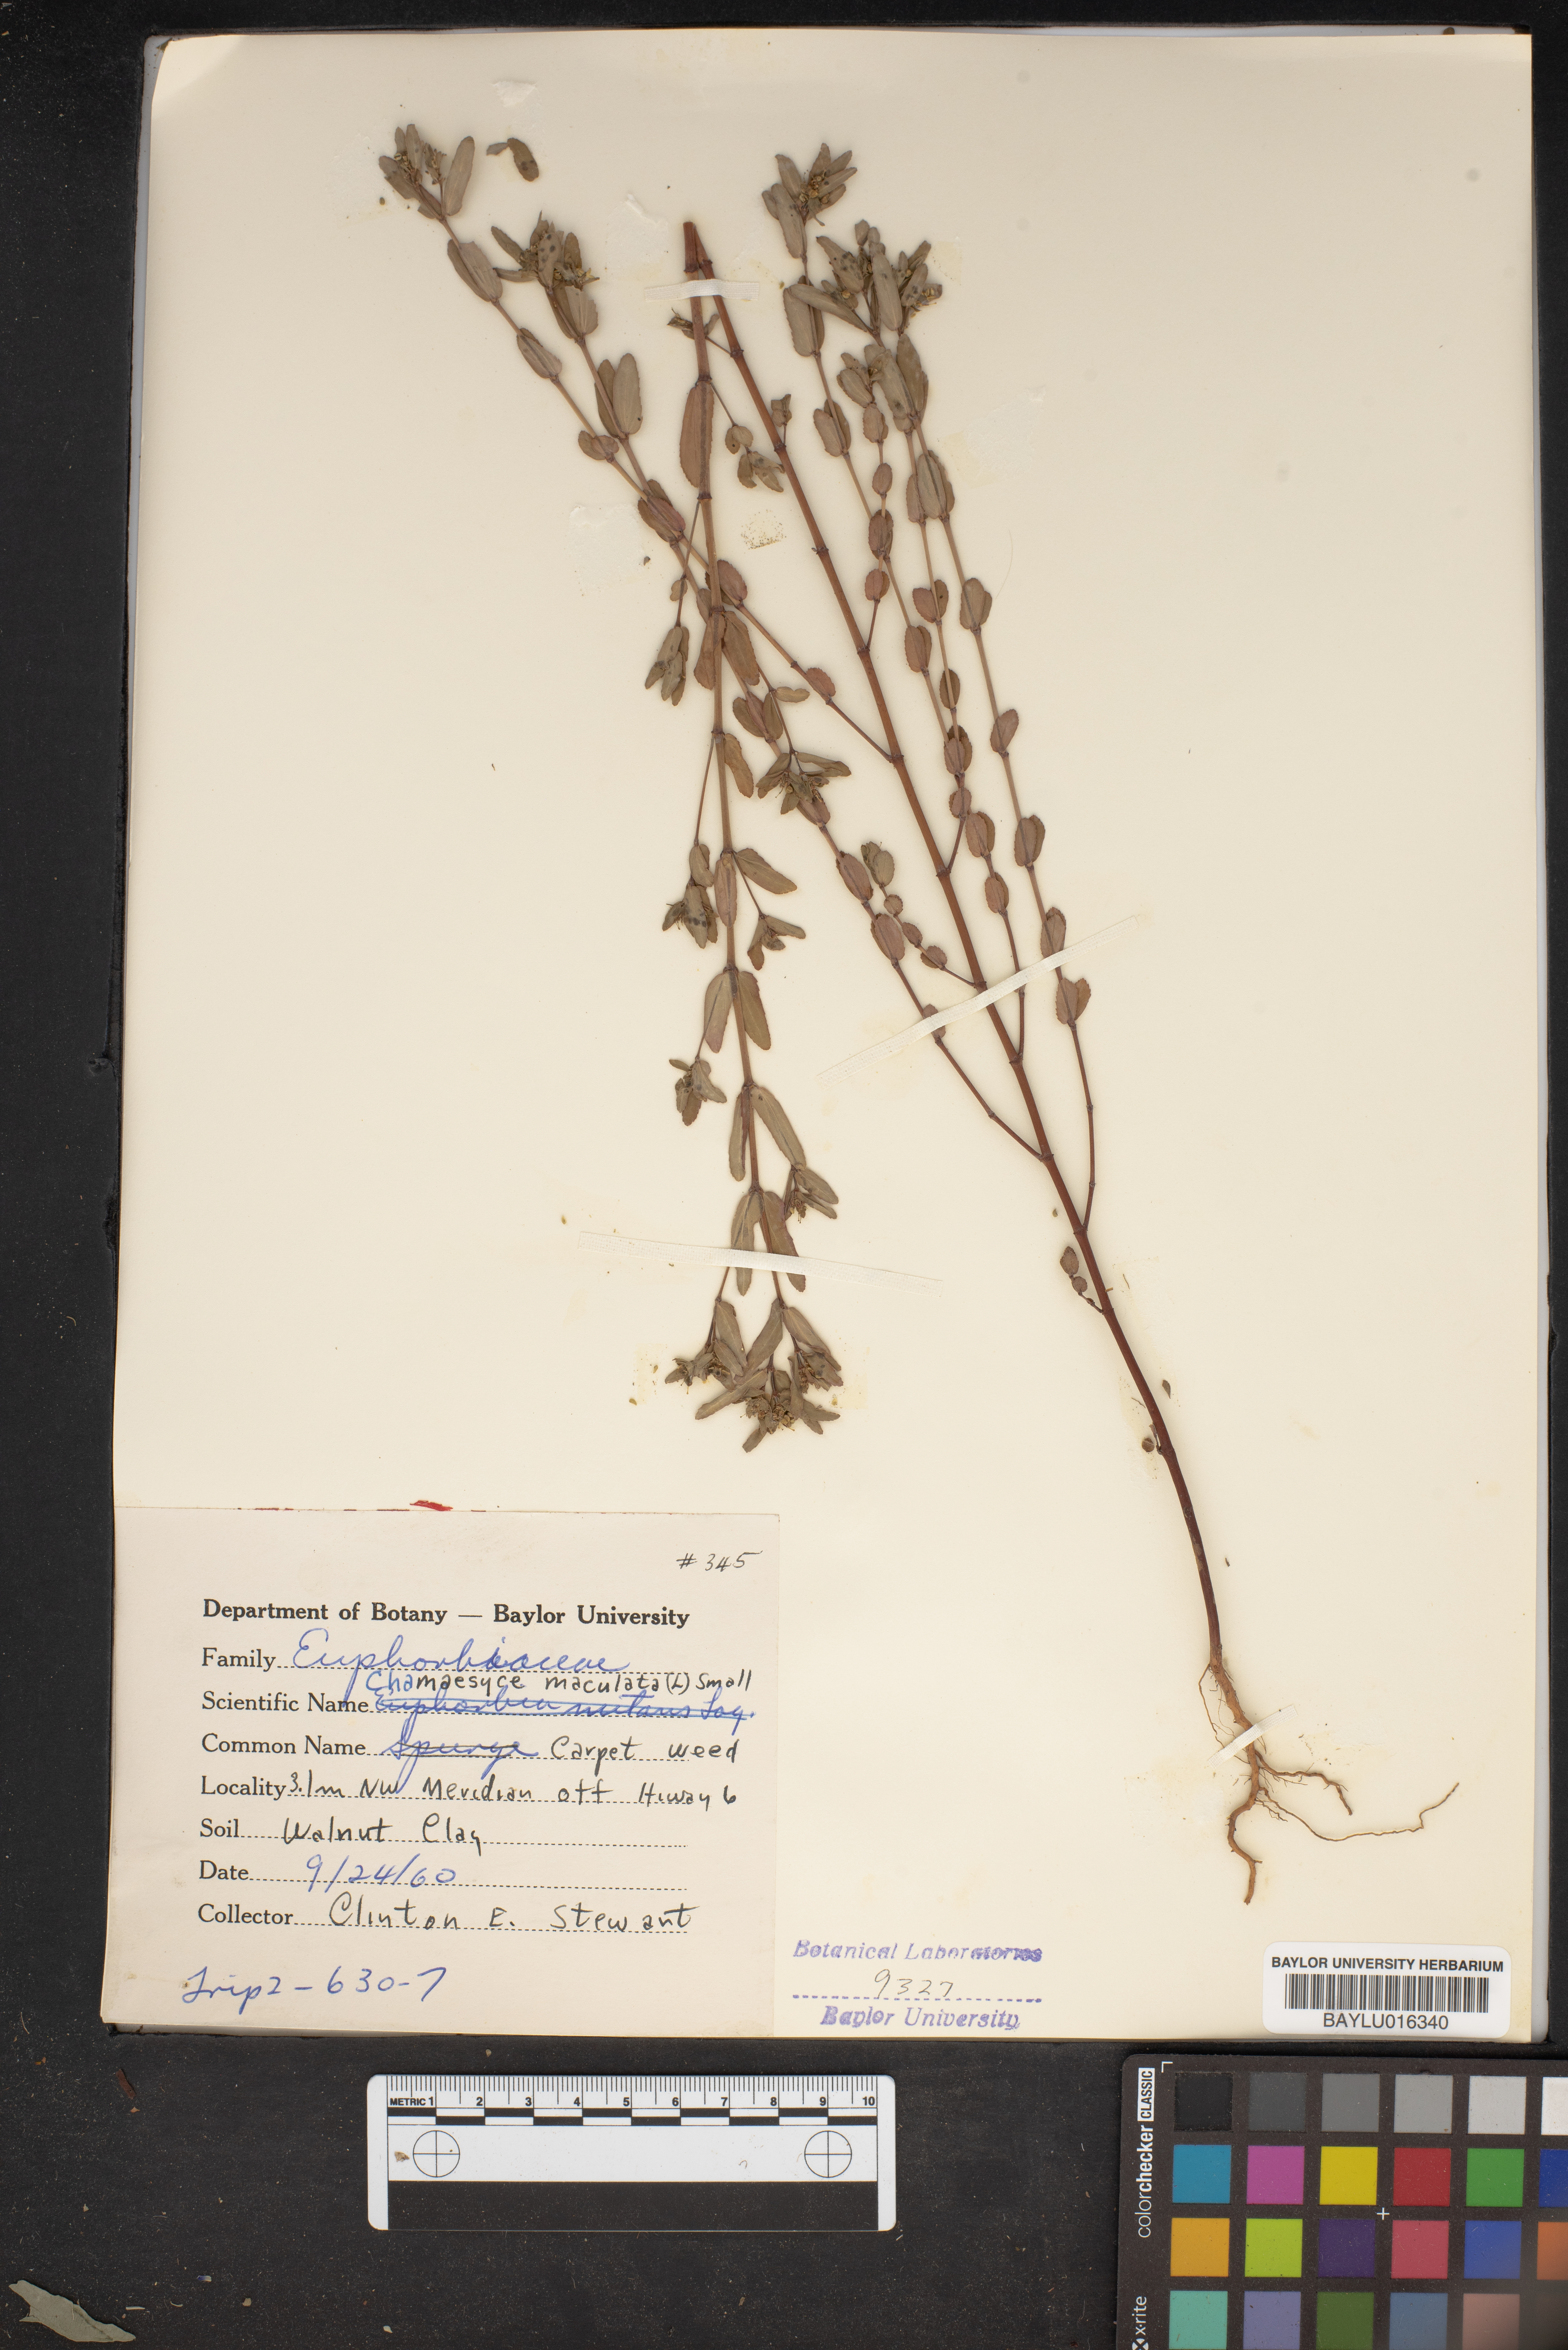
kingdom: Plantae
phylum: Tracheophyta
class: Magnoliopsida
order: Malpighiales
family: Euphorbiaceae
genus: Euphorbia
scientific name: Euphorbia maculata
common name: Spotted spurge
